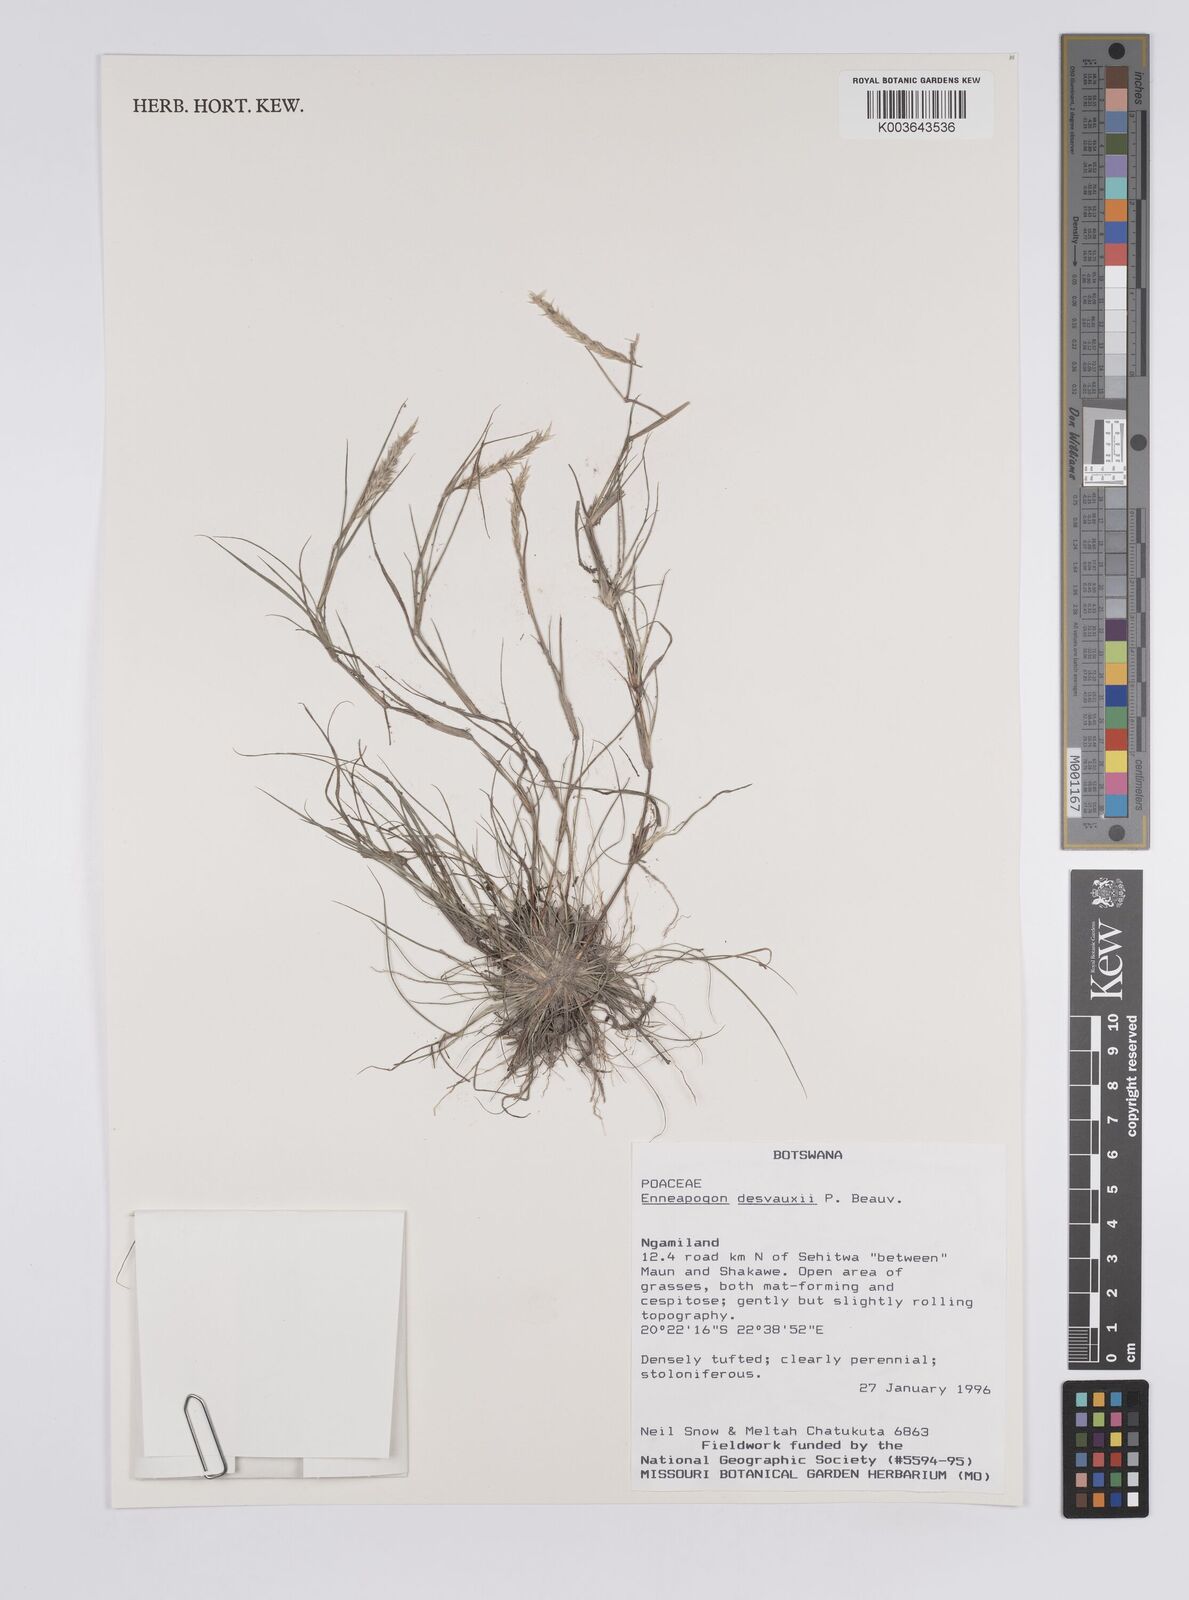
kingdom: Plantae
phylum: Tracheophyta
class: Liliopsida
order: Poales
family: Poaceae
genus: Enneapogon
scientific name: Enneapogon desvauxii
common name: Feather pappus grass
